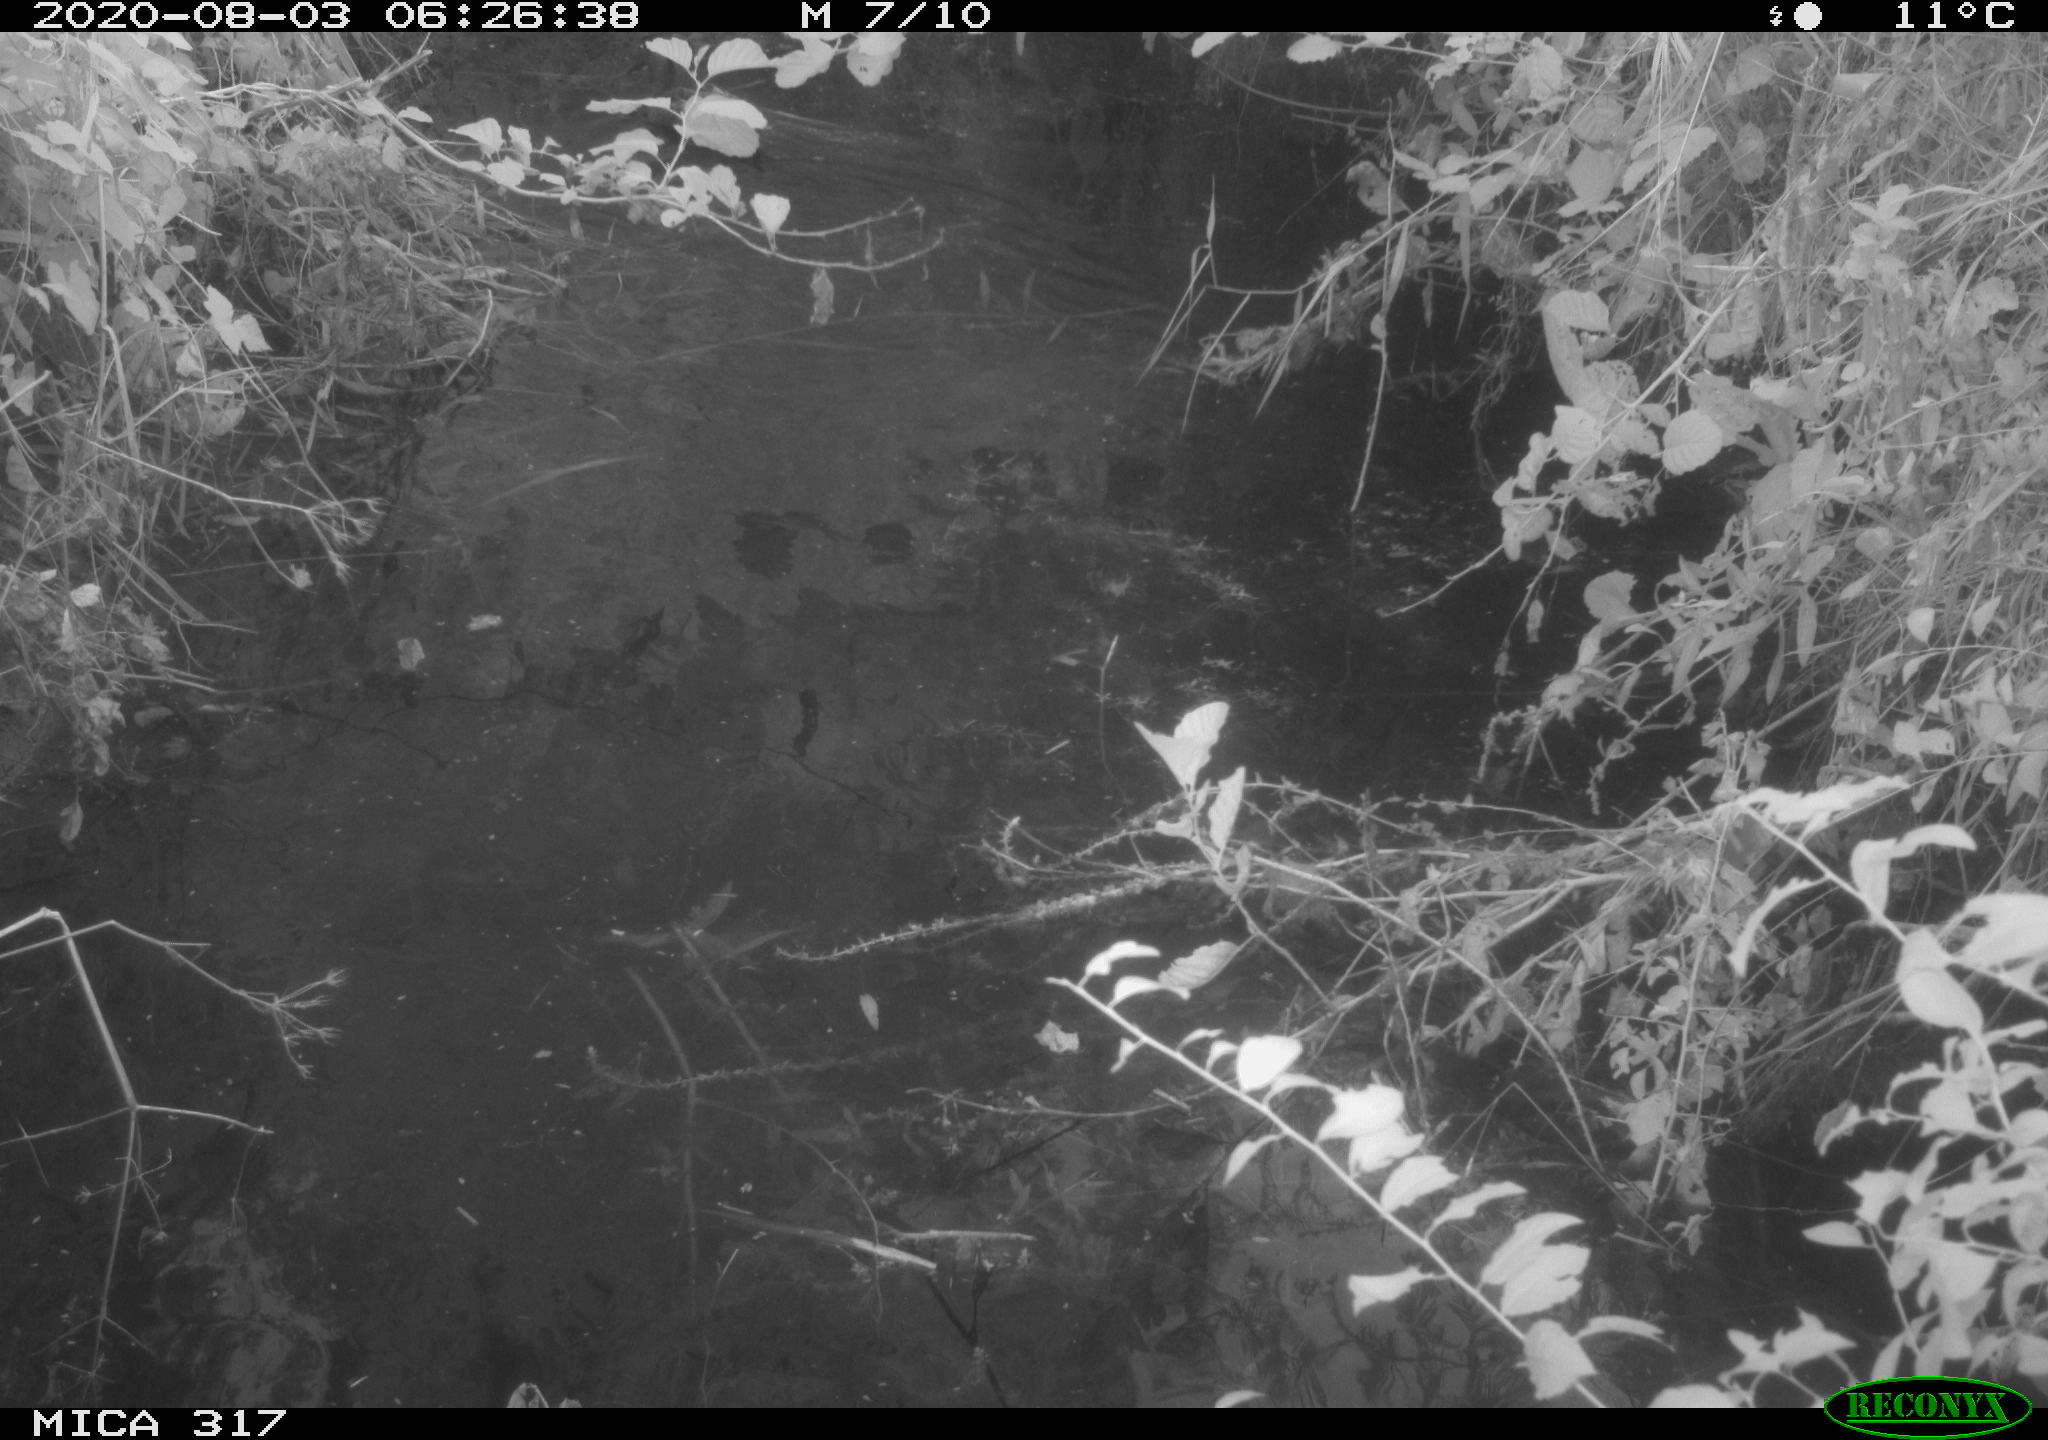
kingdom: Animalia
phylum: Chordata
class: Aves
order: Anseriformes
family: Anatidae
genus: Anas
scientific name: Anas platyrhynchos
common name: Mallard
